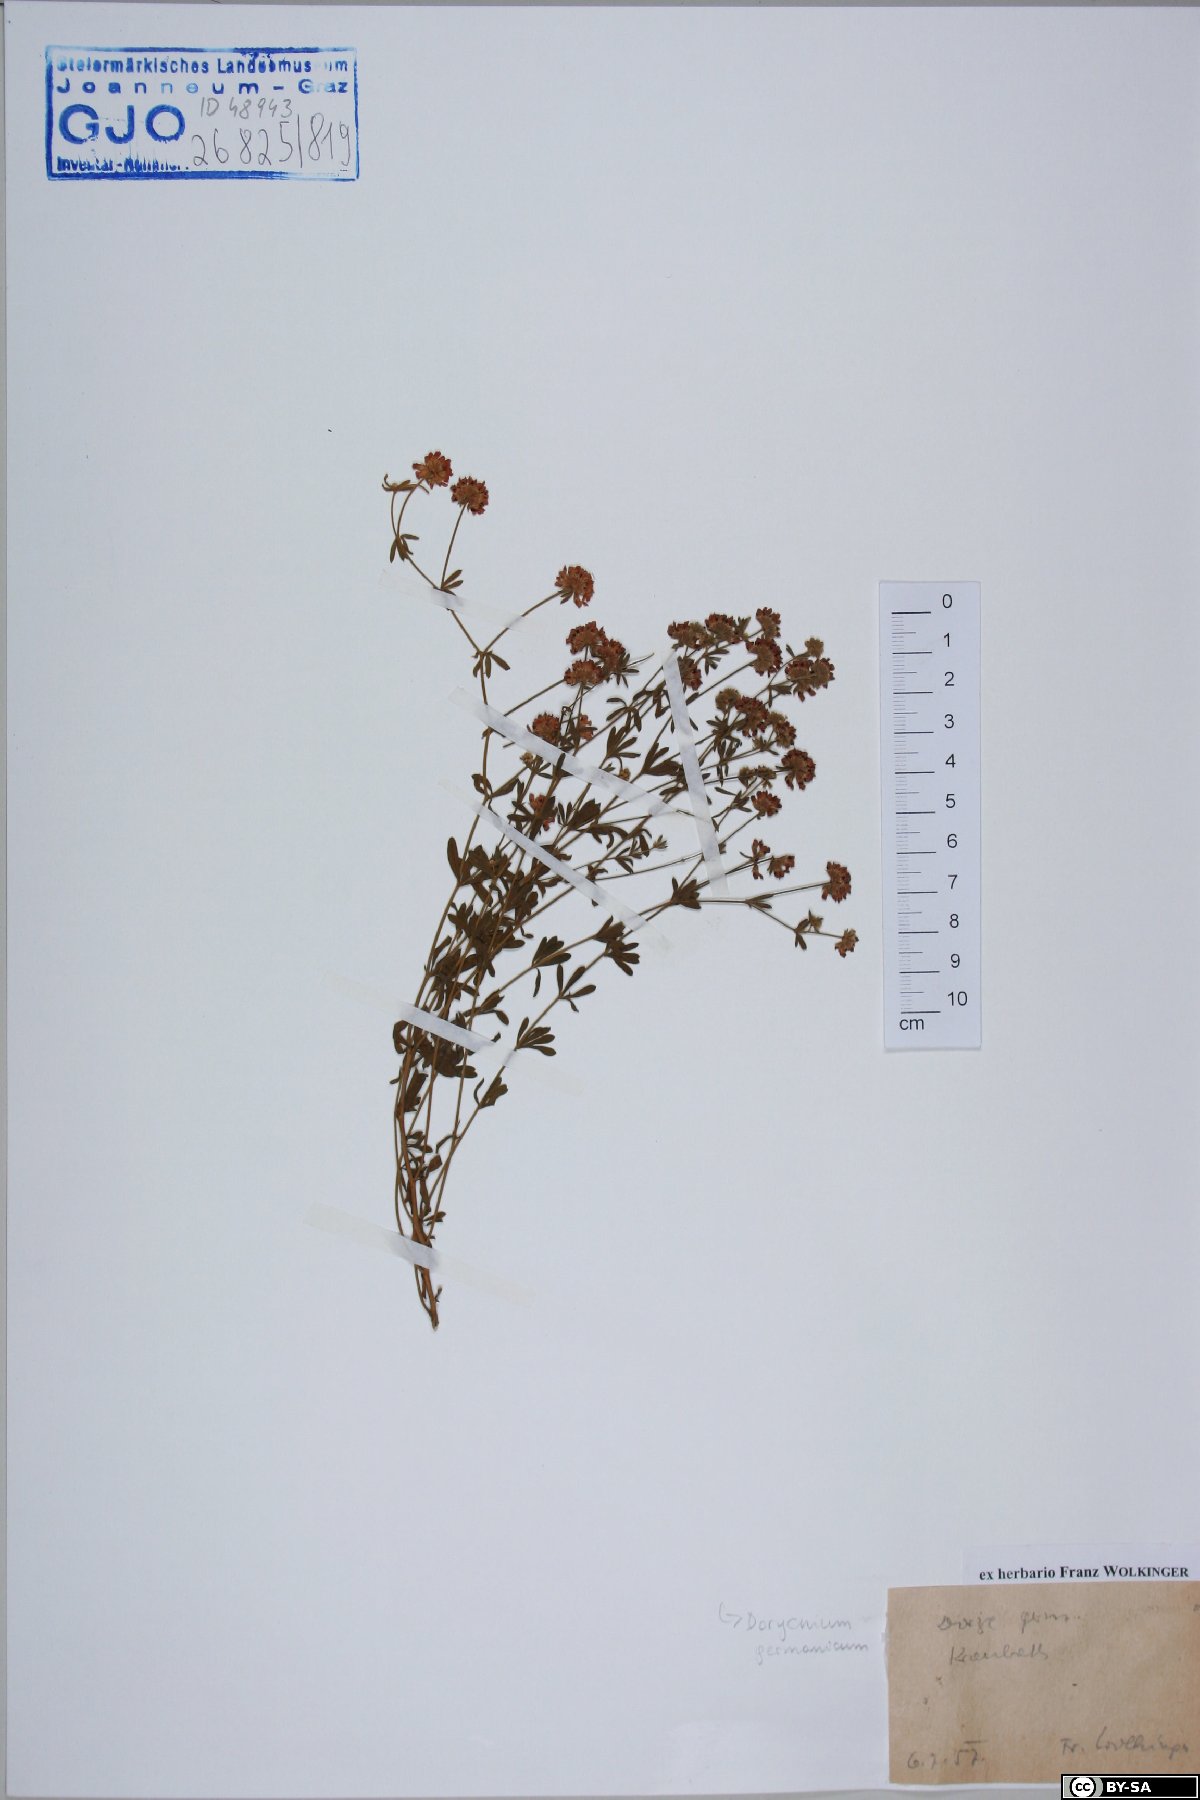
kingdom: Plantae
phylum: Tracheophyta
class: Magnoliopsida
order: Fabales
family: Fabaceae
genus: Lotus
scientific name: Lotus germanicus
